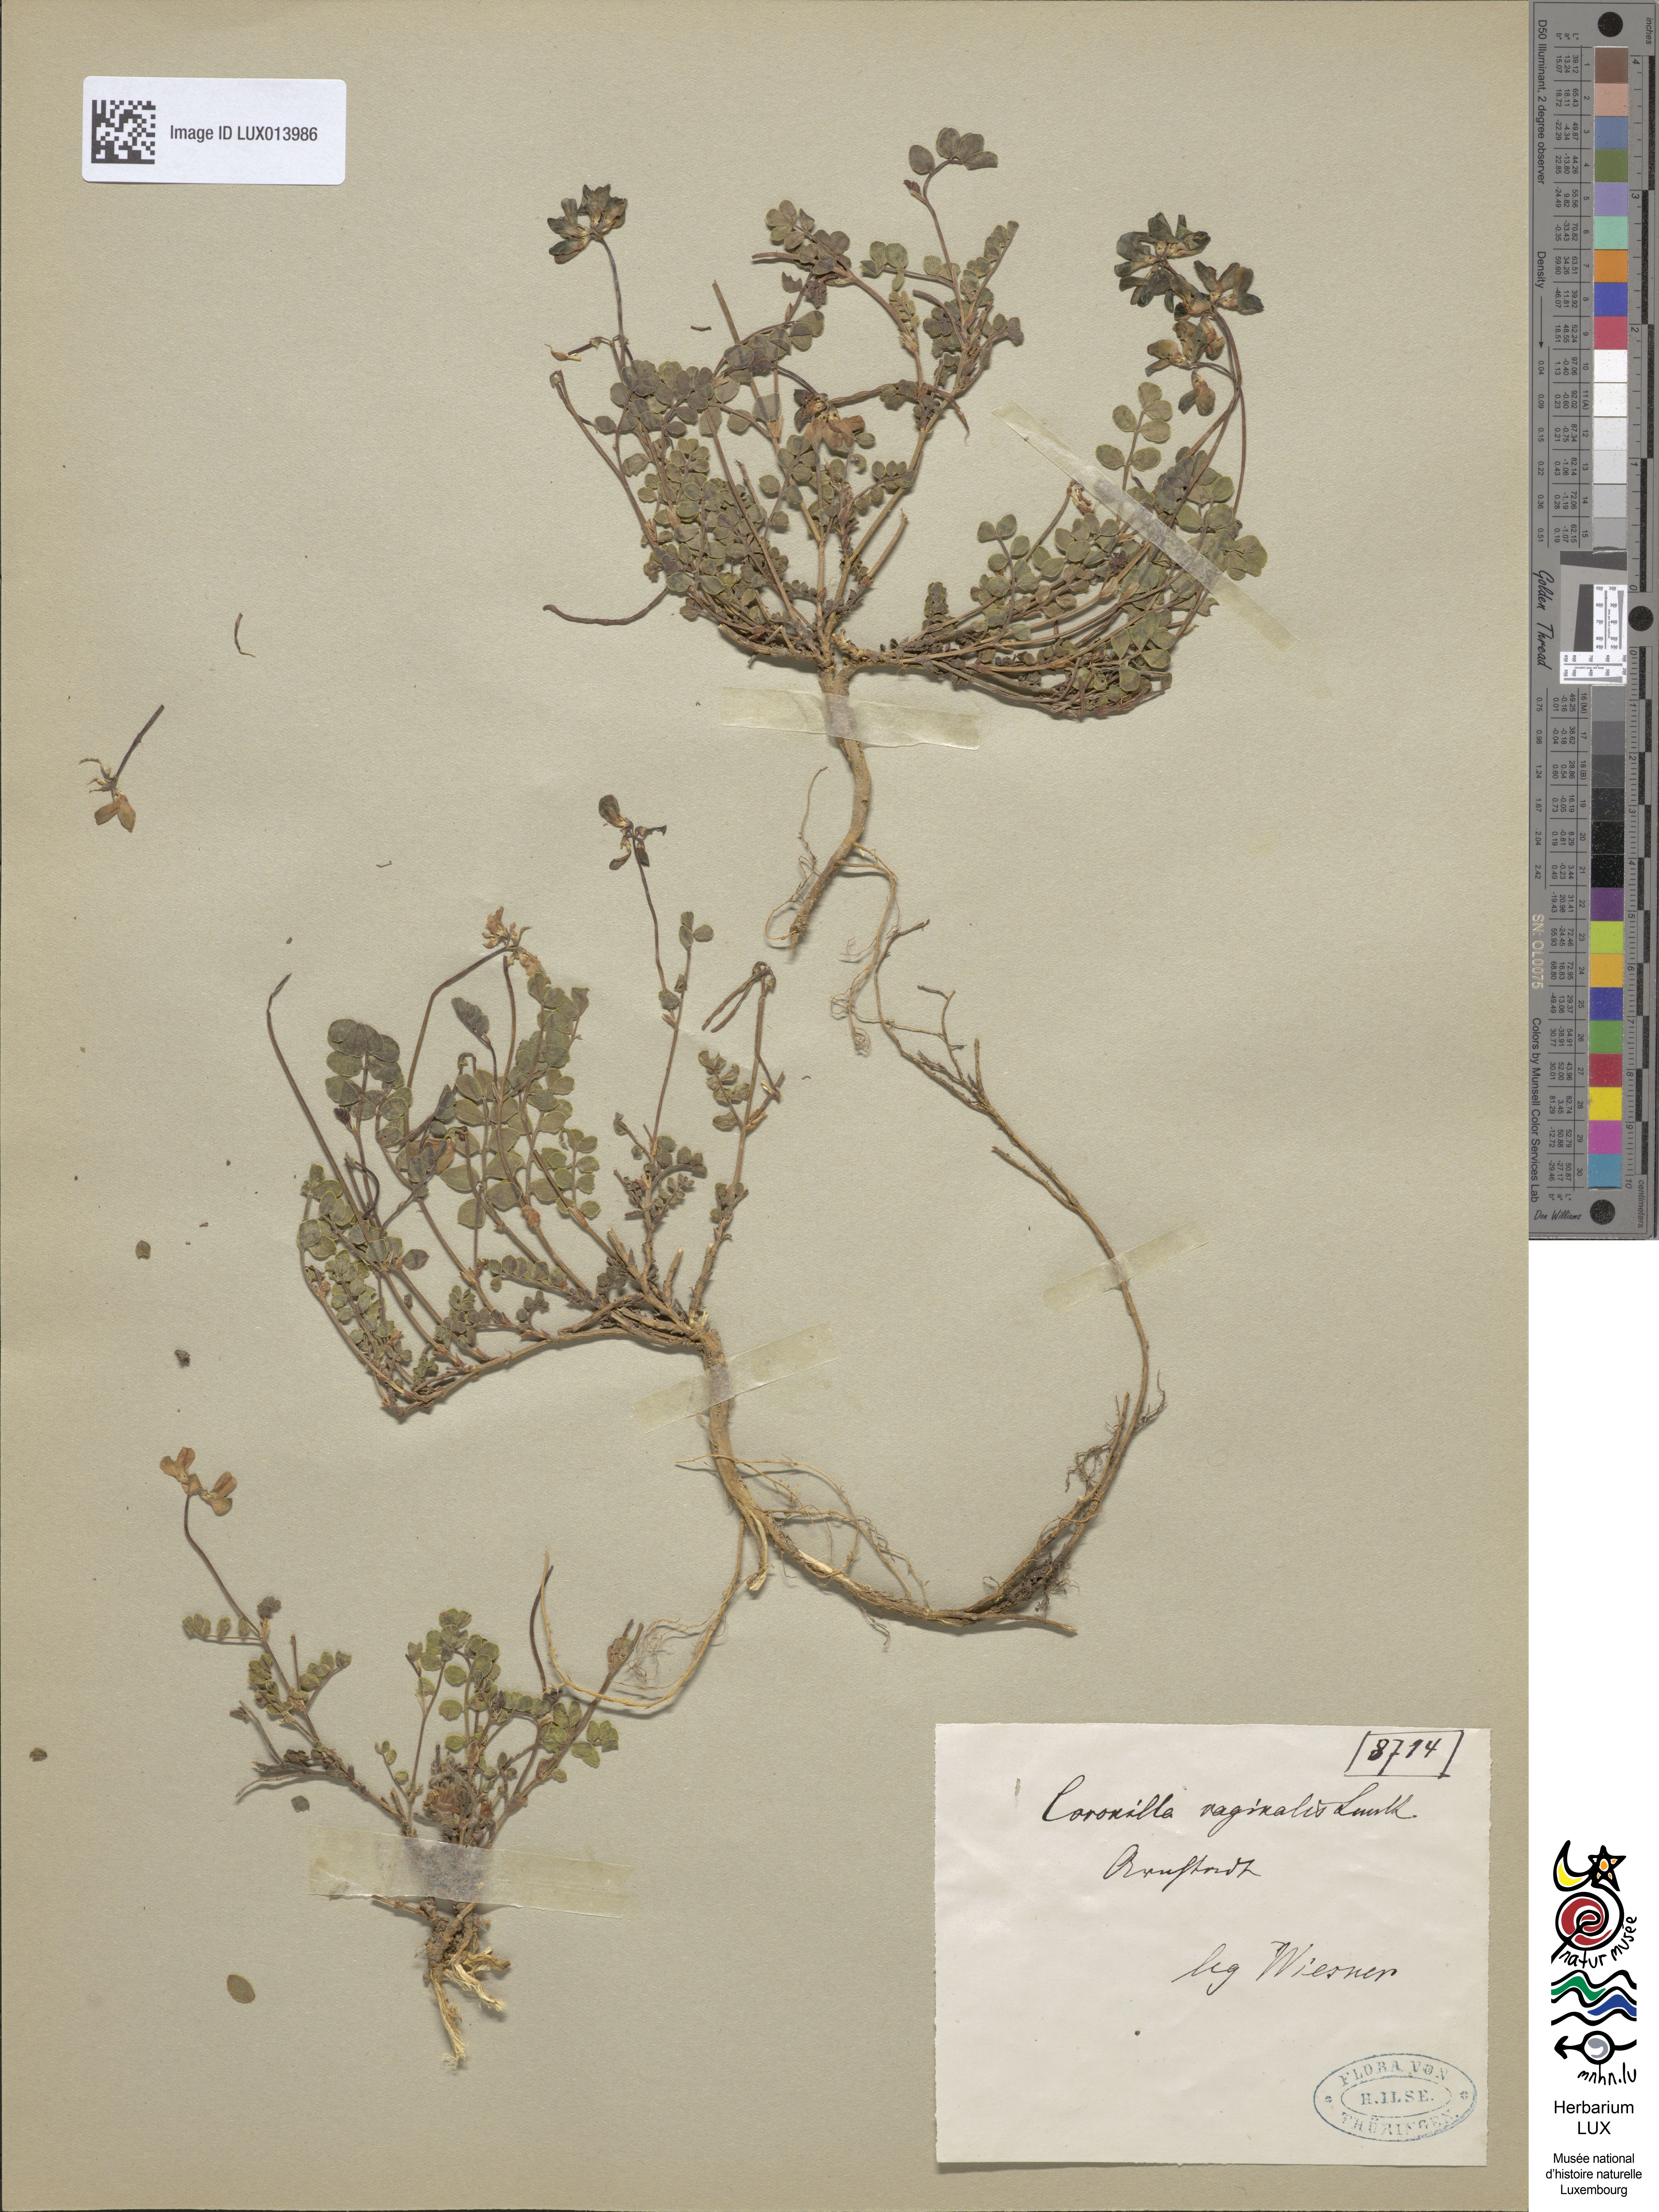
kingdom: Plantae
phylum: Tracheophyta
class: Magnoliopsida
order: Fabales
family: Fabaceae
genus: Coronilla
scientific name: Coronilla vaginalis
